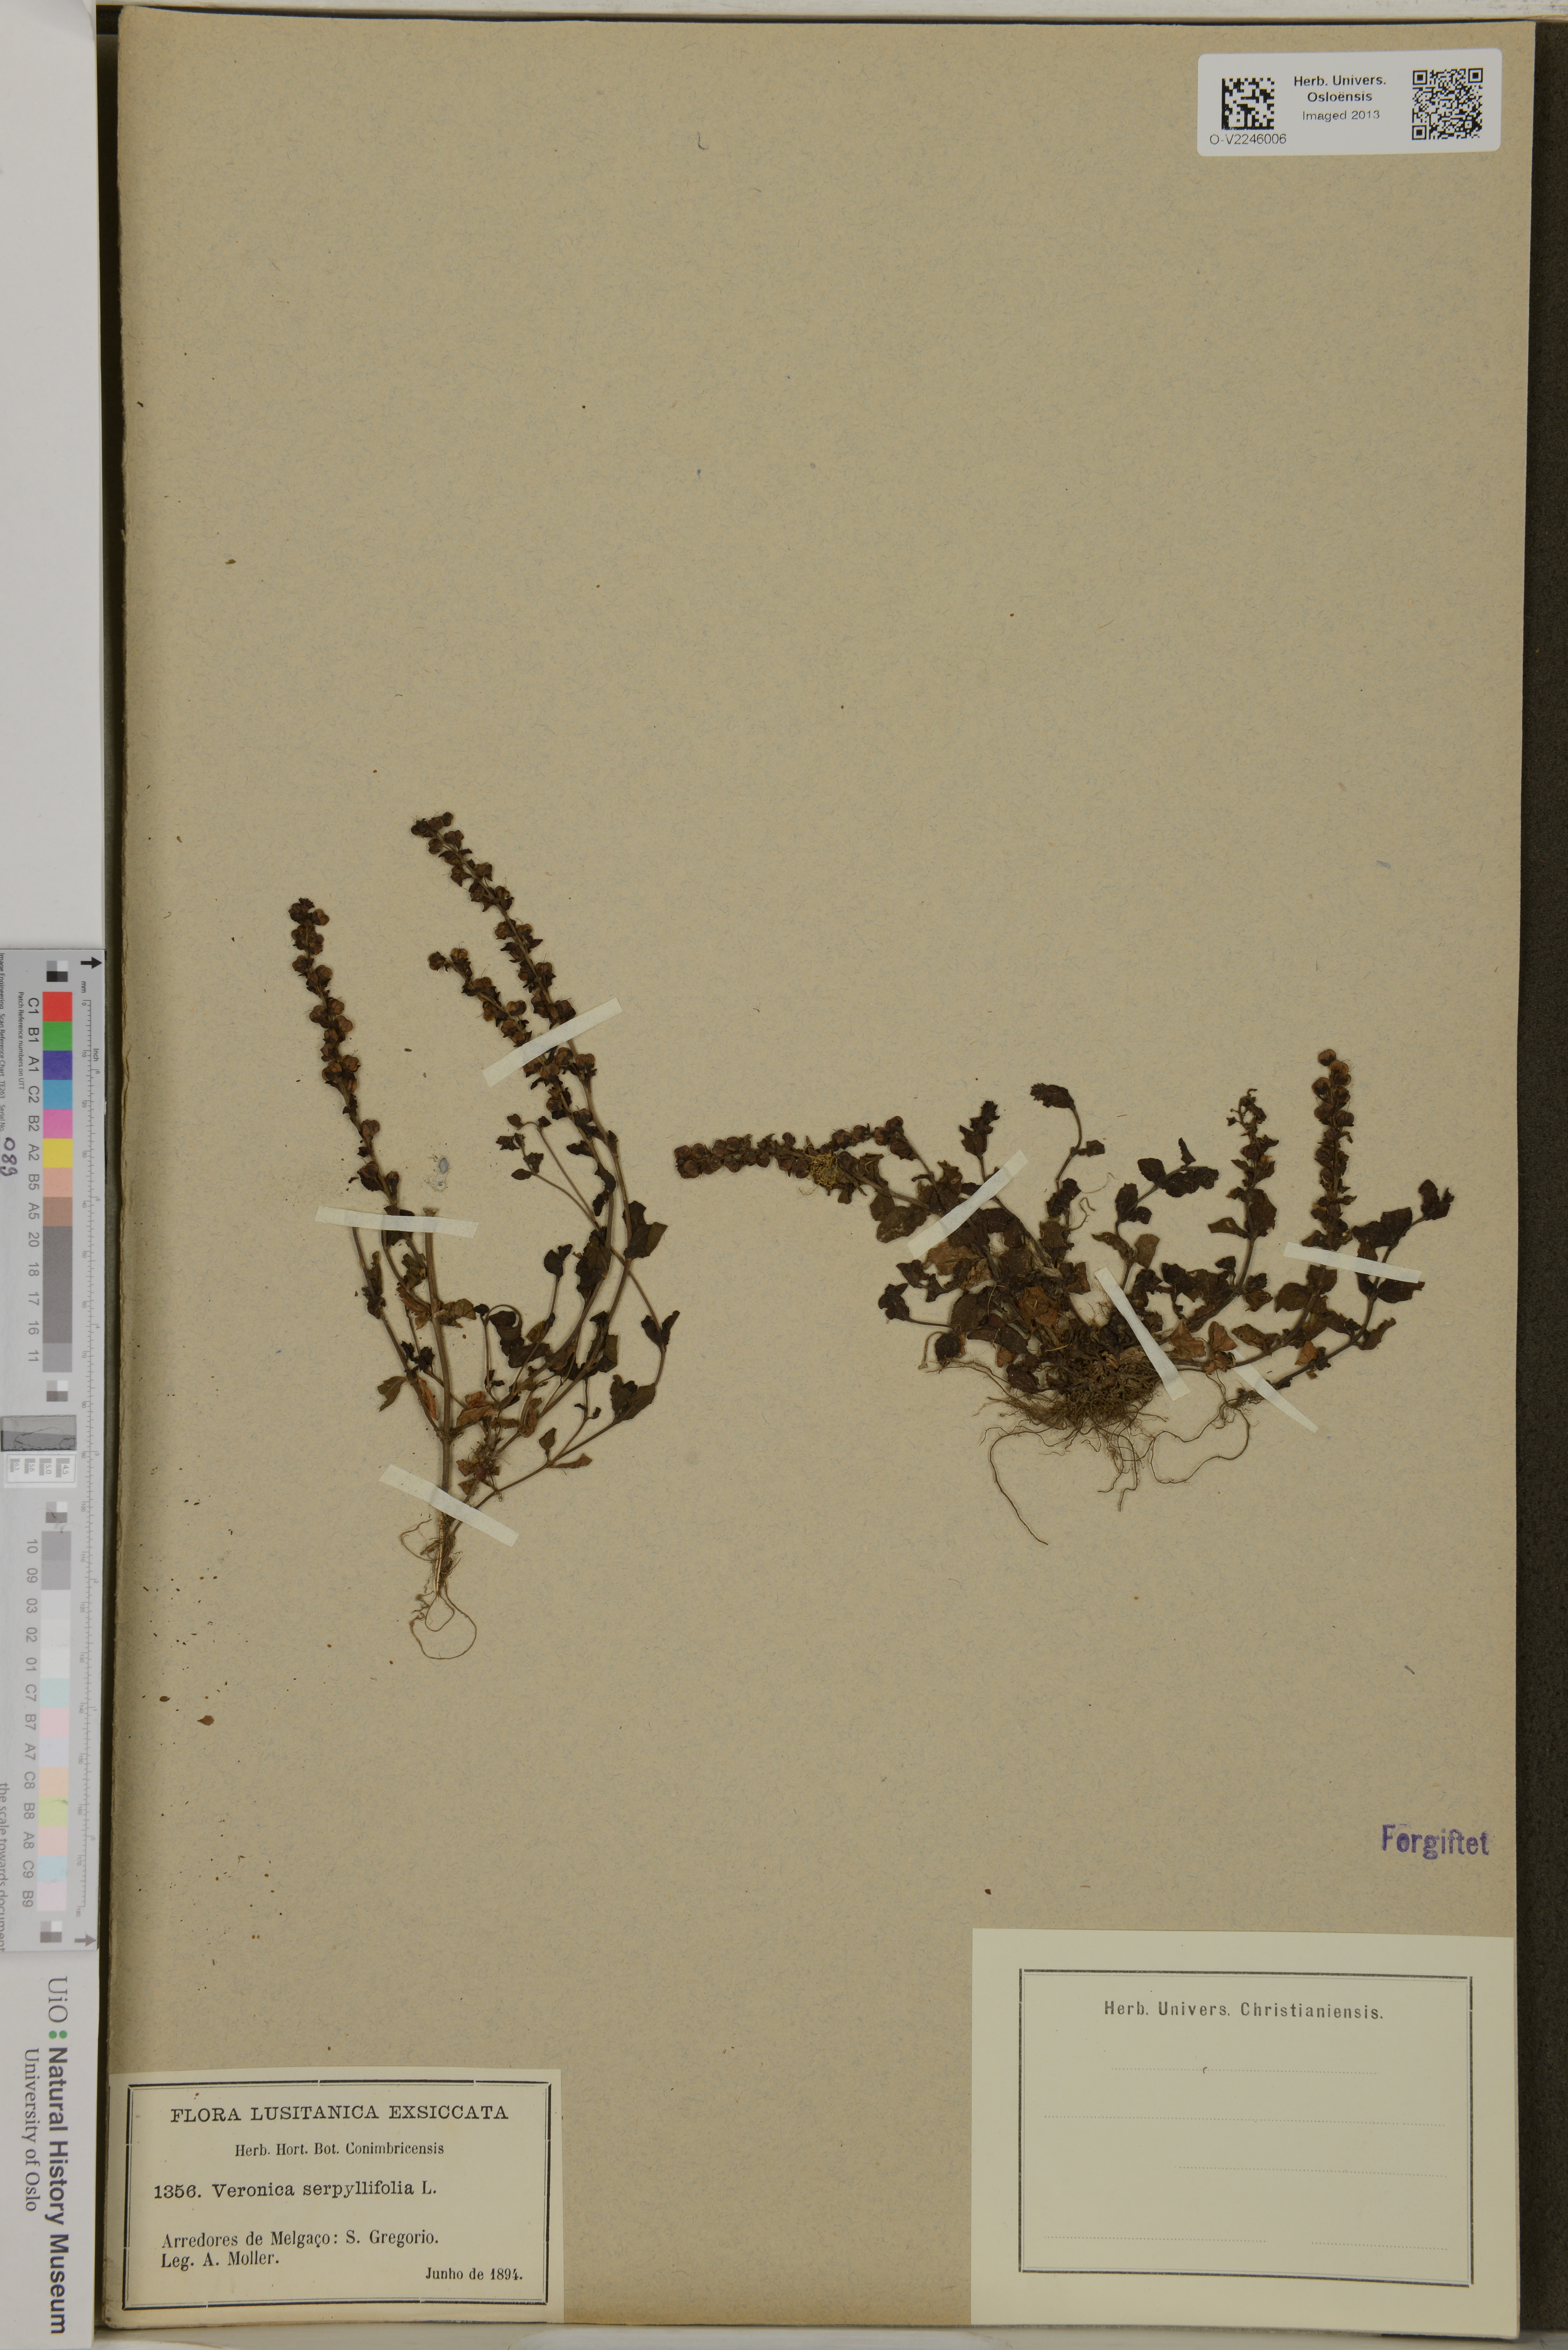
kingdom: Plantae
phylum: Tracheophyta
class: Magnoliopsida
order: Lamiales
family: Plantaginaceae
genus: Veronica
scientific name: Veronica serpyllifolia
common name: Thyme-leaved speedwell
